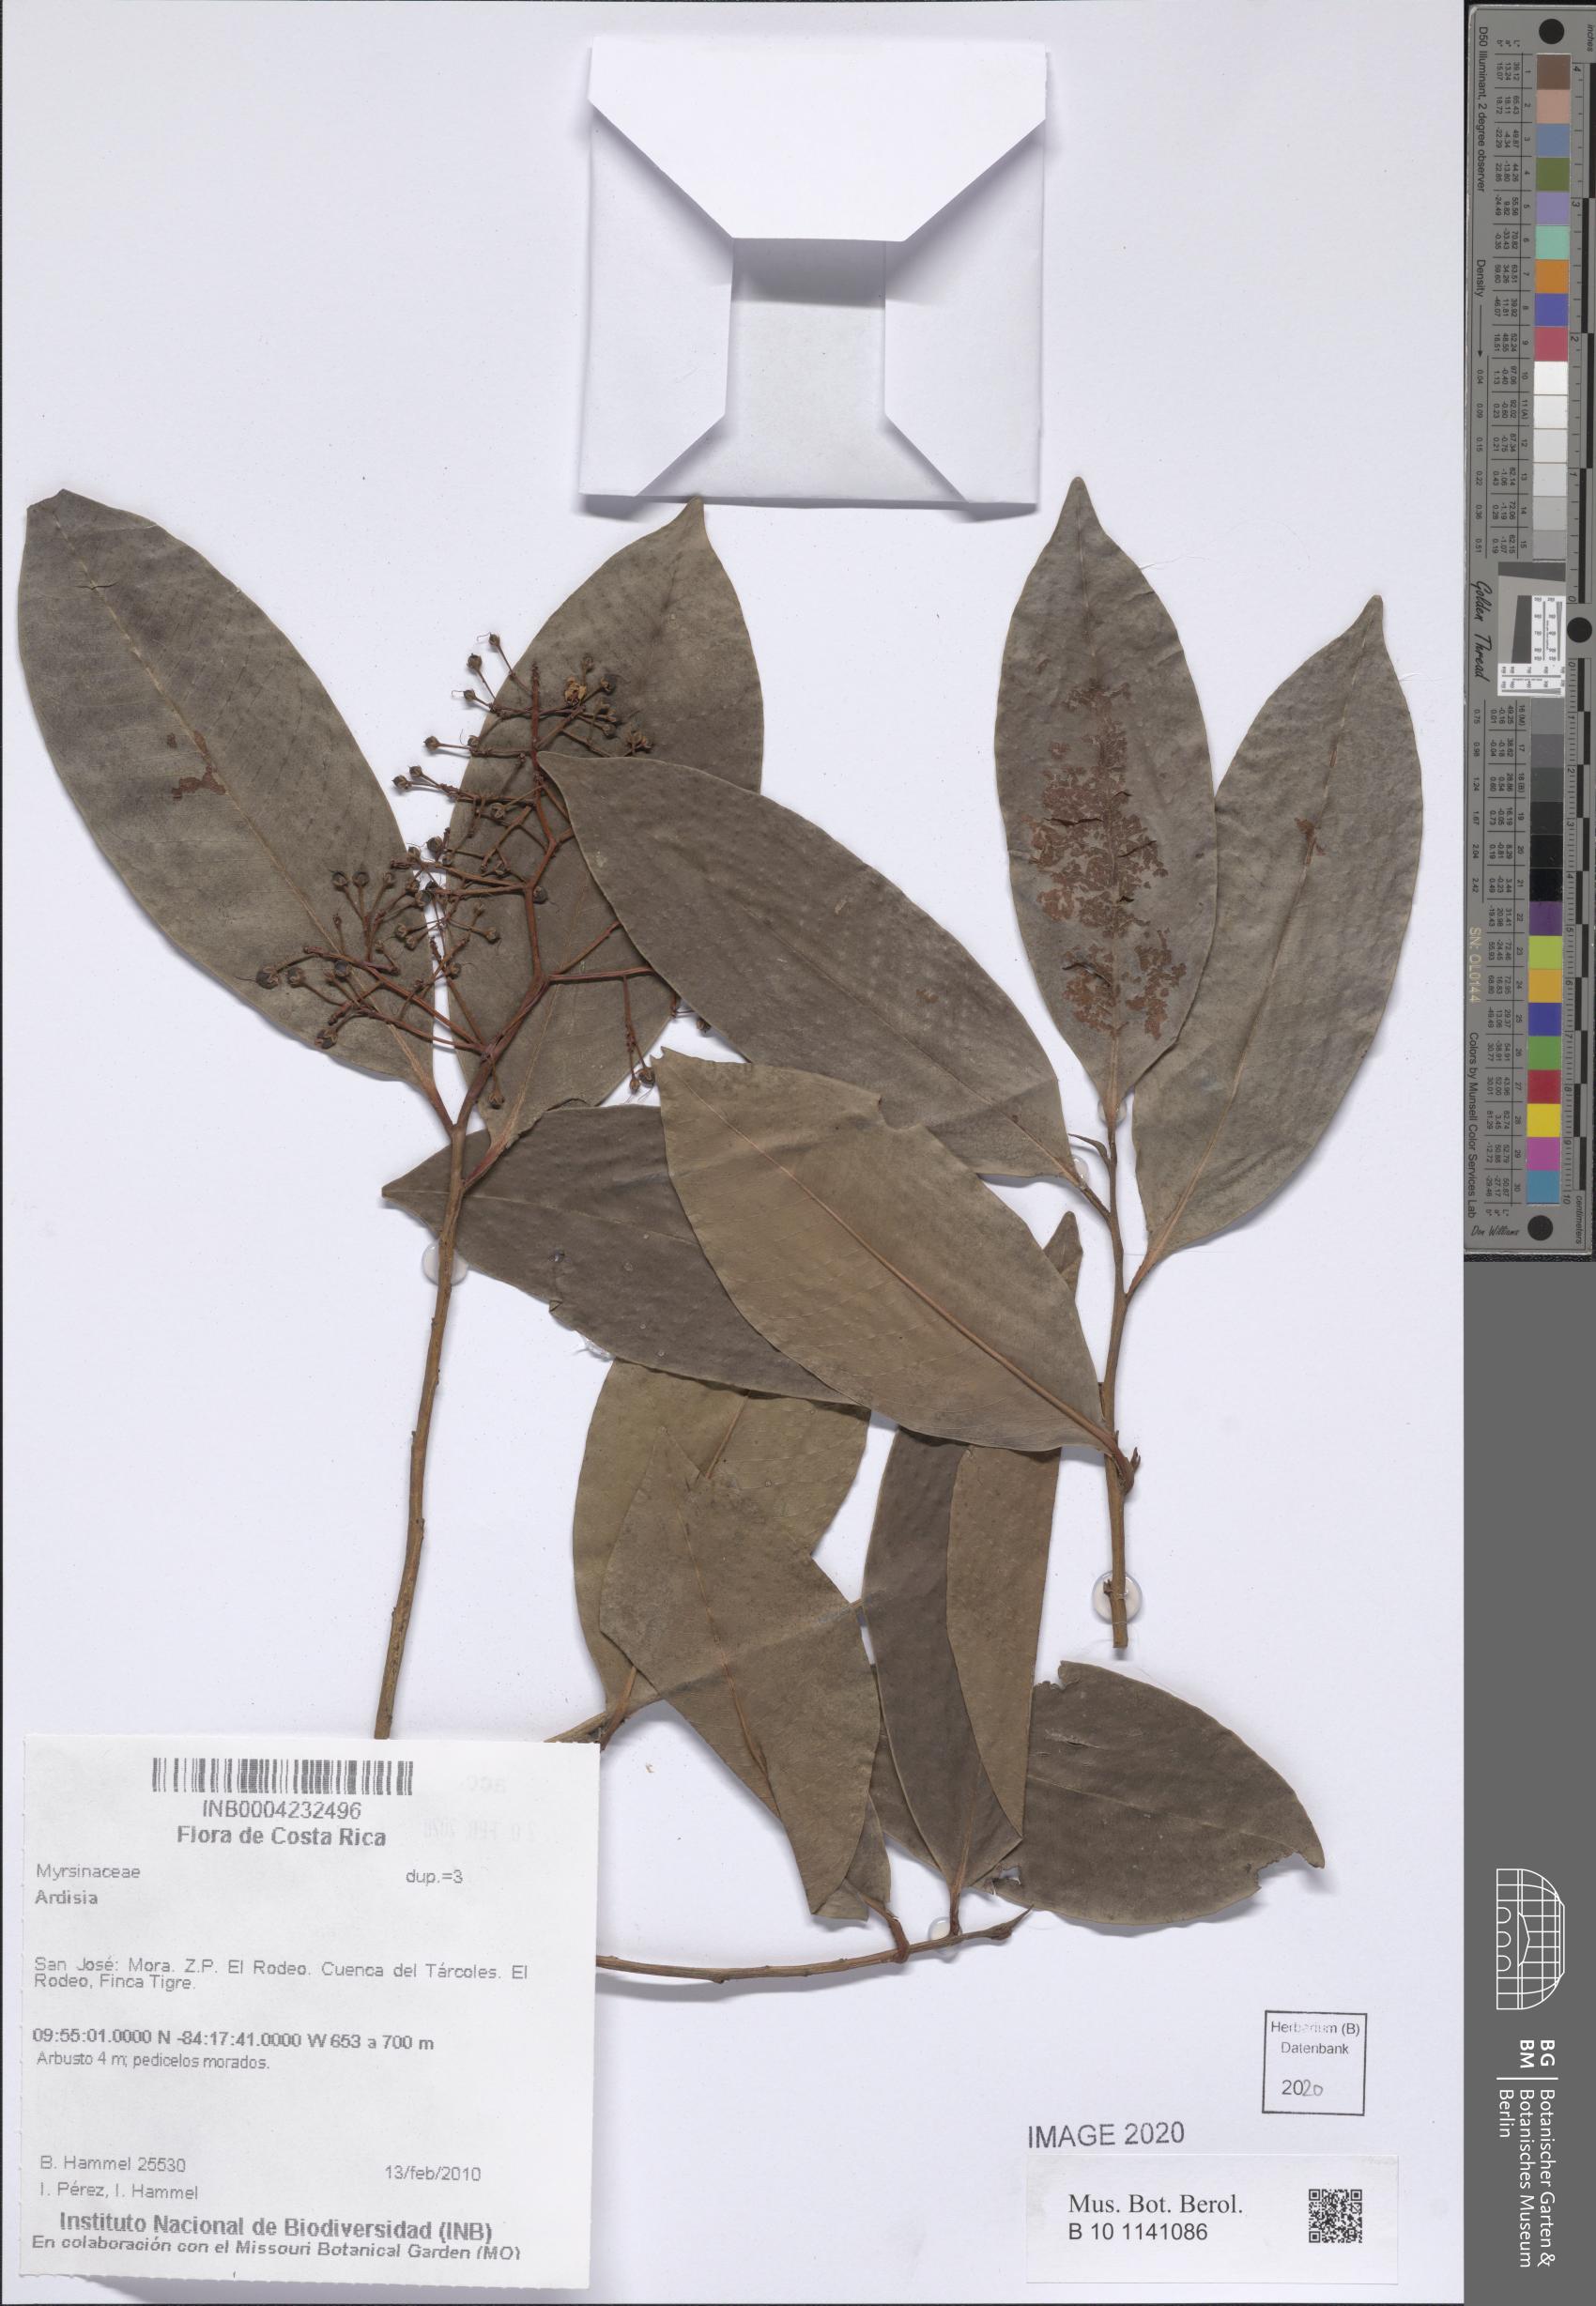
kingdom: Plantae
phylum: Tracheophyta
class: Magnoliopsida
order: Ericales
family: Primulaceae
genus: Ardisia
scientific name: Ardisia
